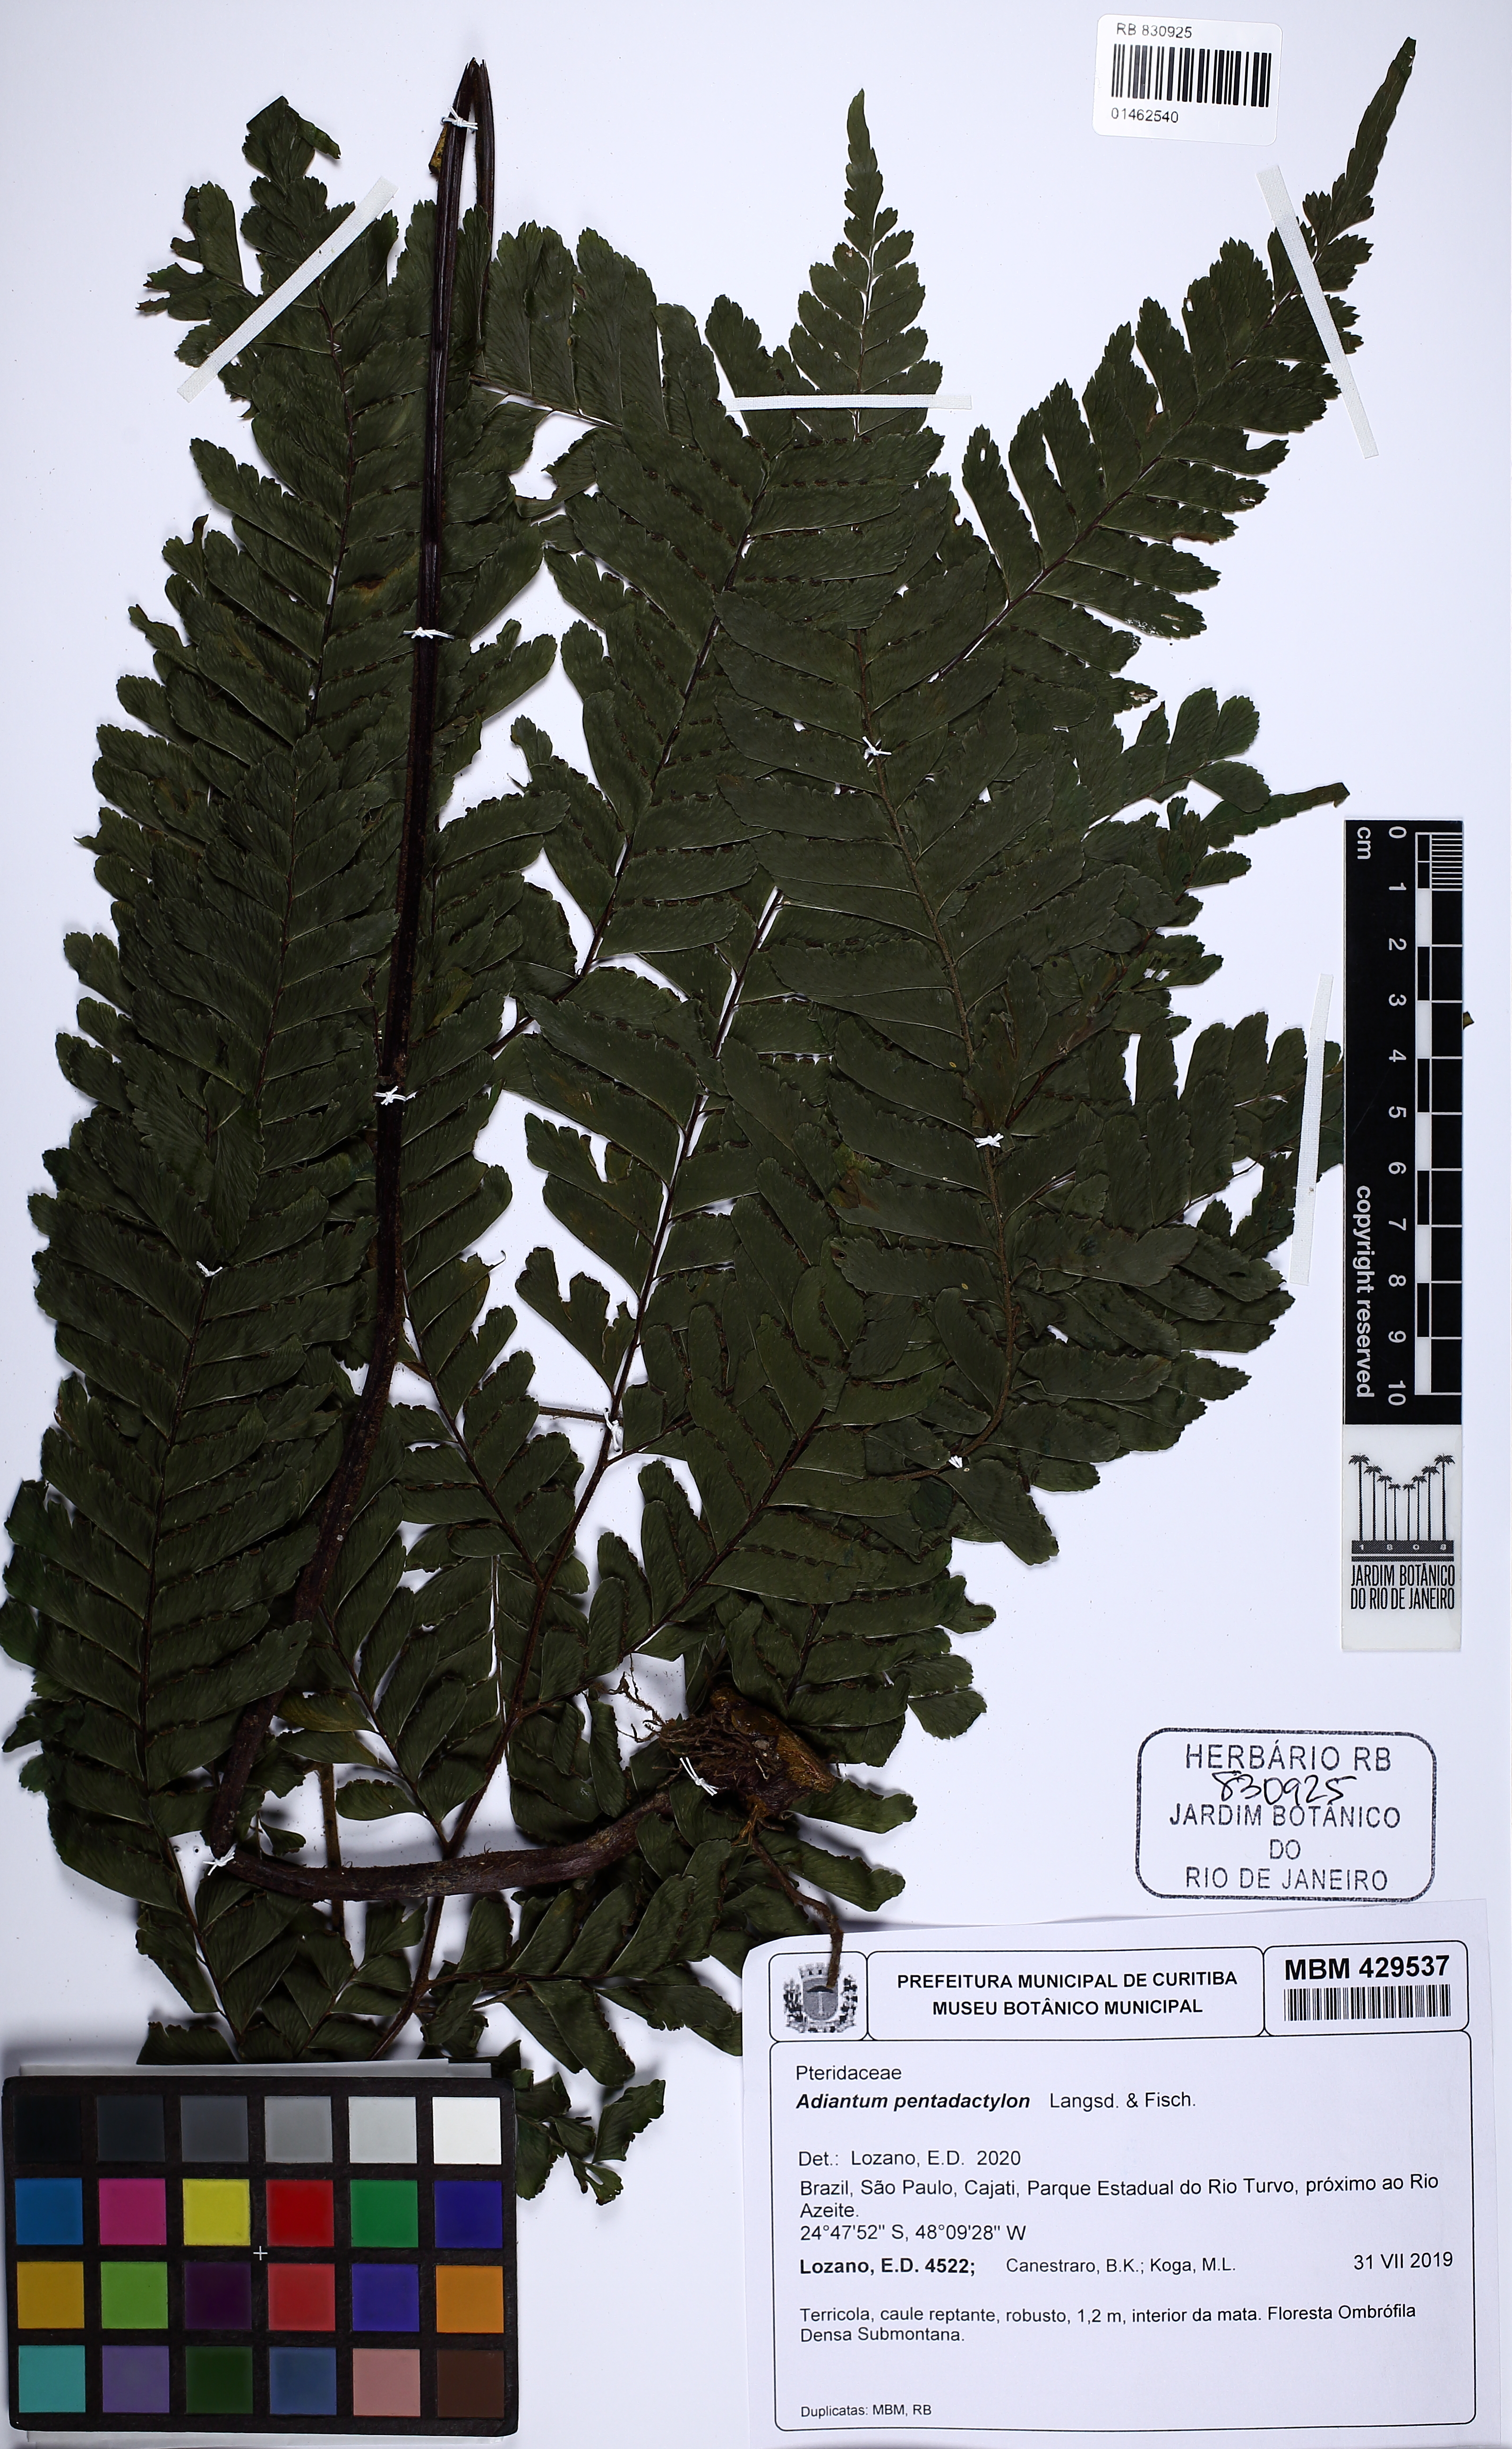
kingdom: Plantae
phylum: Tracheophyta
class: Polypodiopsida
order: Polypodiales
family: Pteridaceae
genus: Adiantum
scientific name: Adiantum pentadactylon
